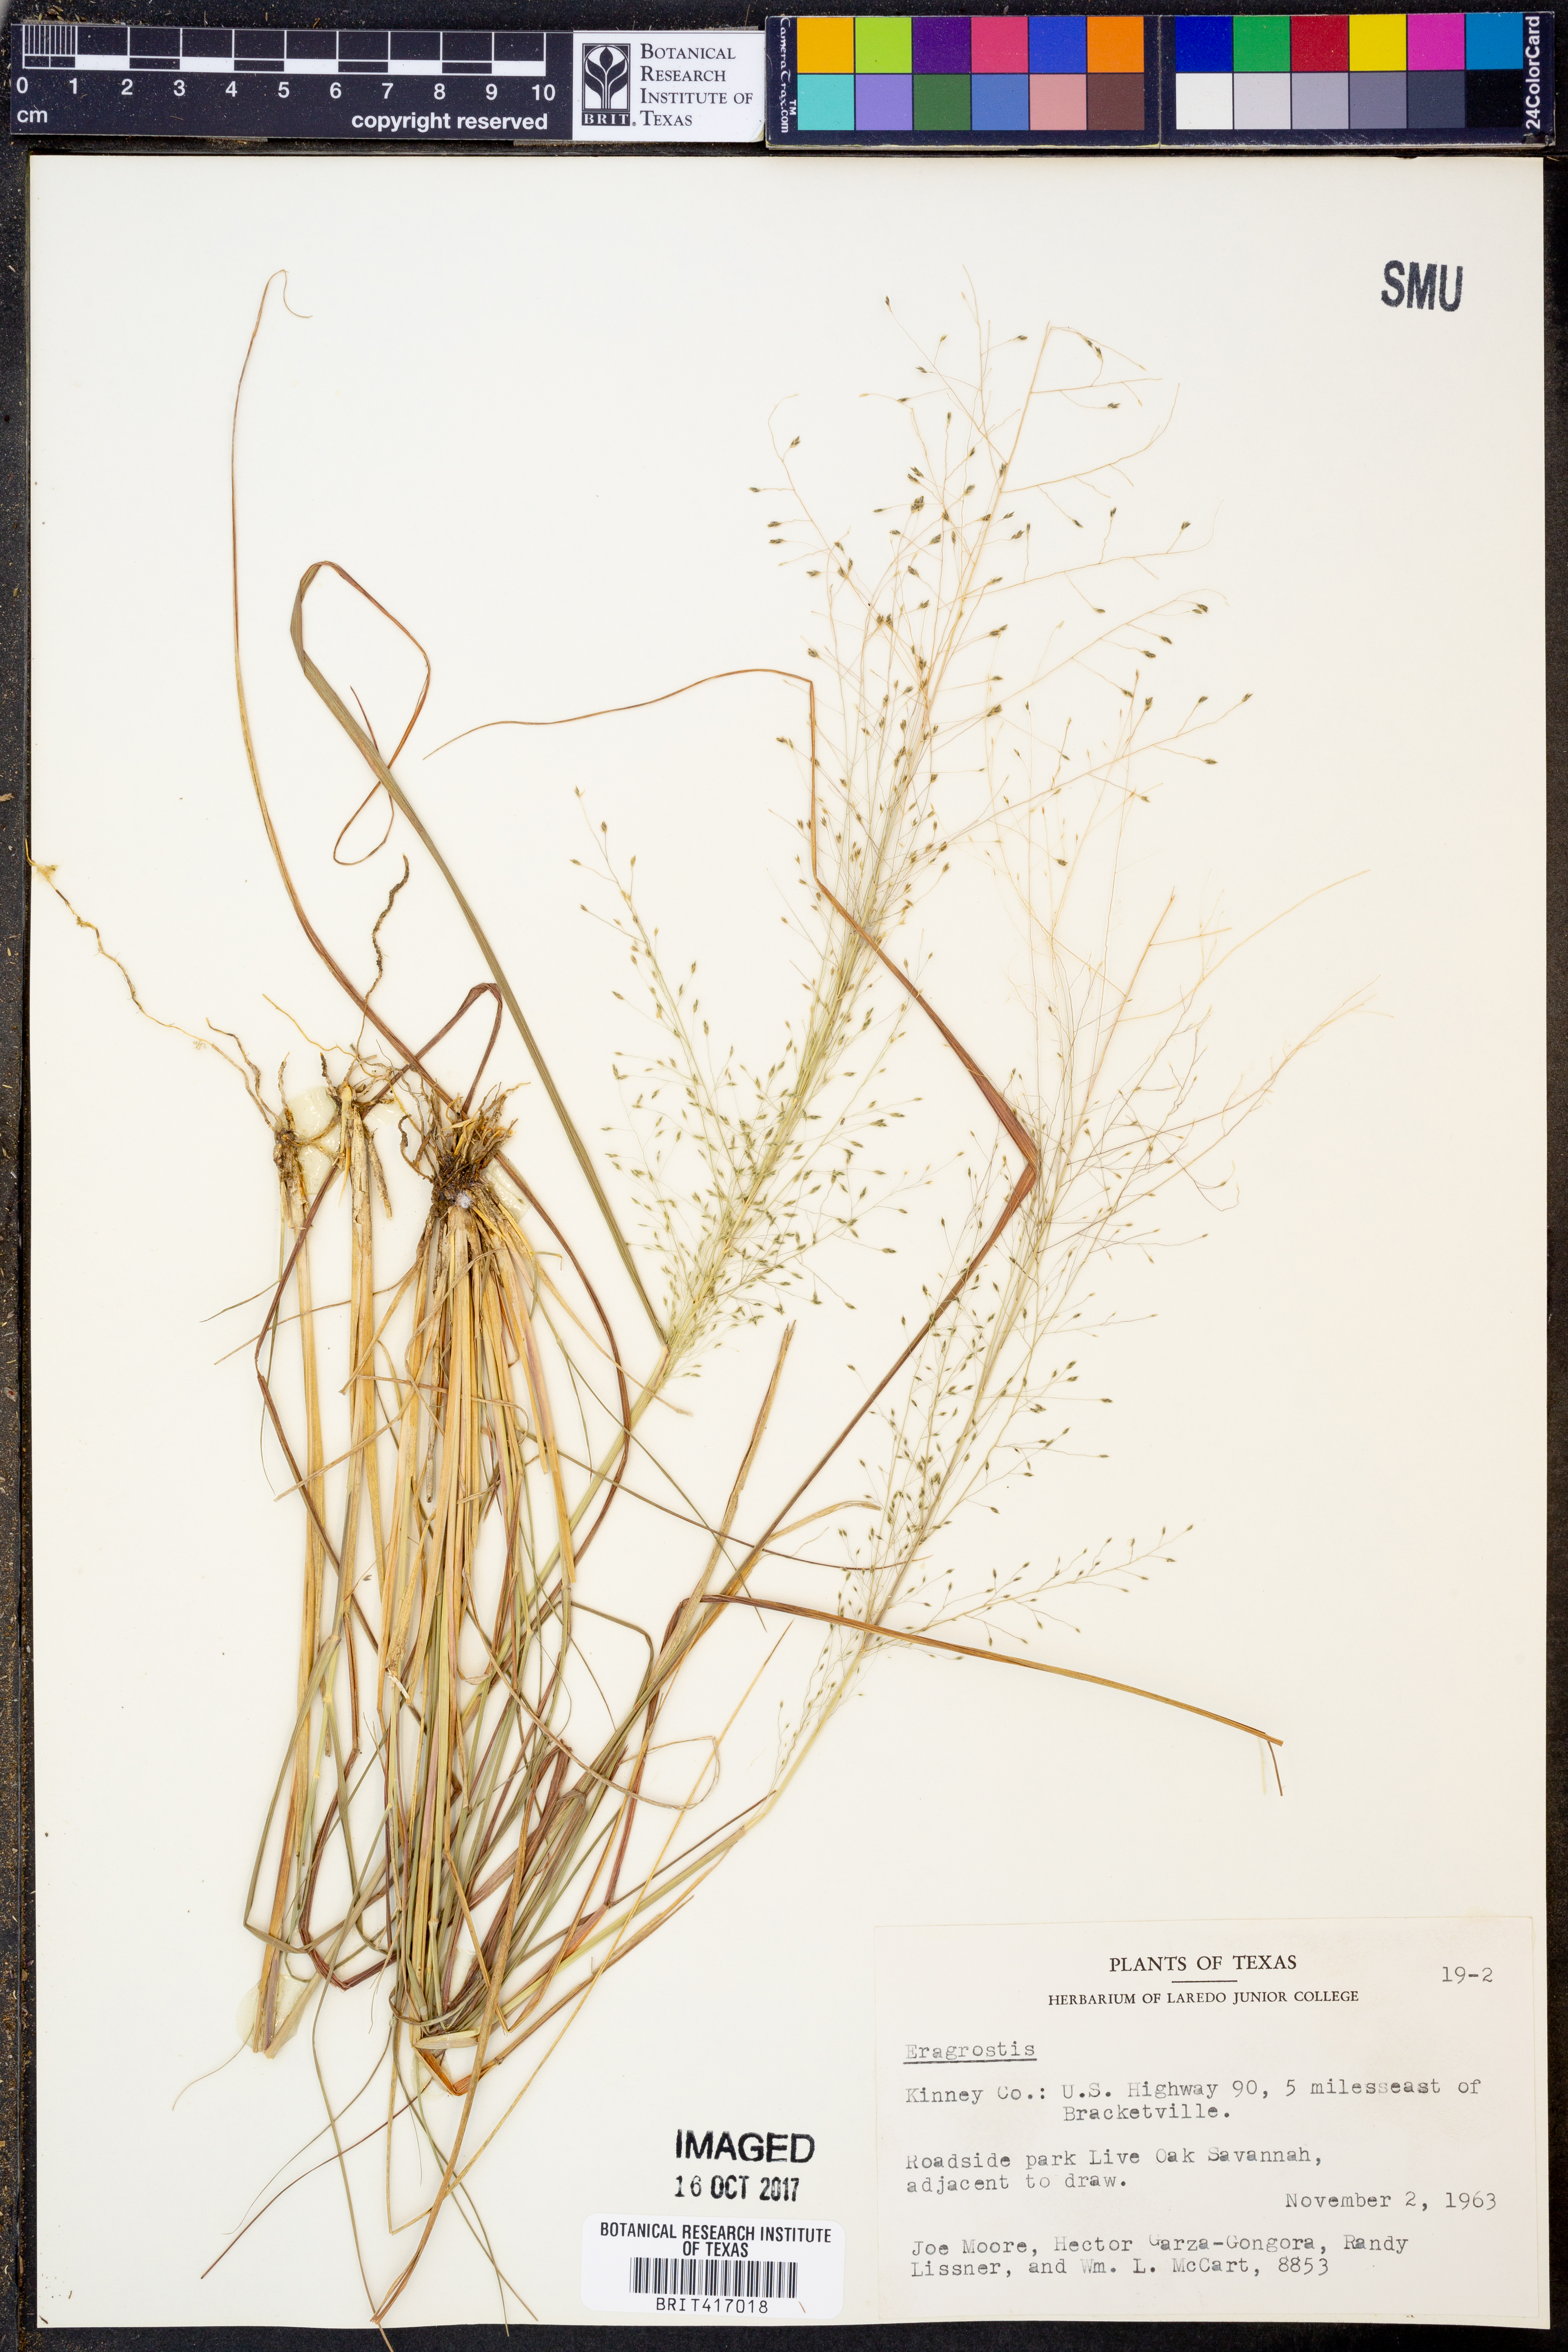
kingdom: Plantae
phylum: Tracheophyta
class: Liliopsida
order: Poales
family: Poaceae
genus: Eragrostis
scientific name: Eragrostis
